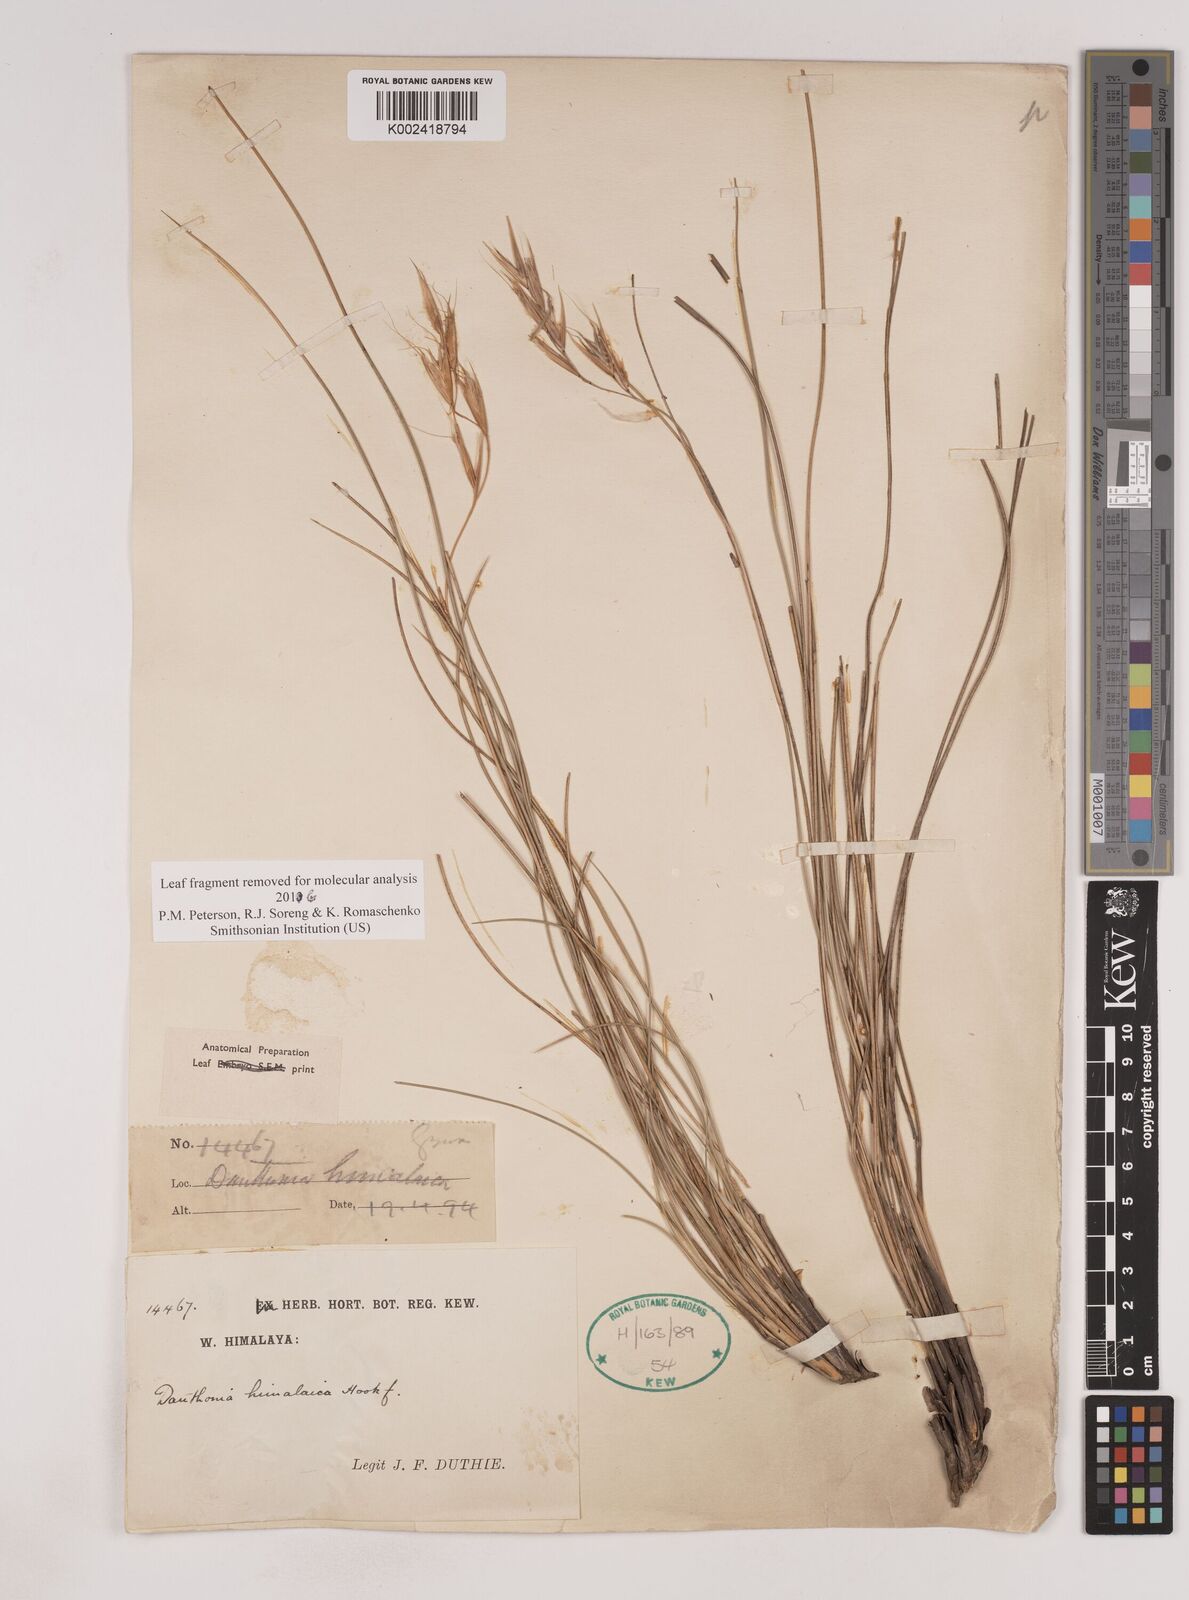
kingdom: Plantae
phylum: Tracheophyta
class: Liliopsida
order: Poales
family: Poaceae
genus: Pseudodanthonia
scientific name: Pseudodanthonia himalaica
